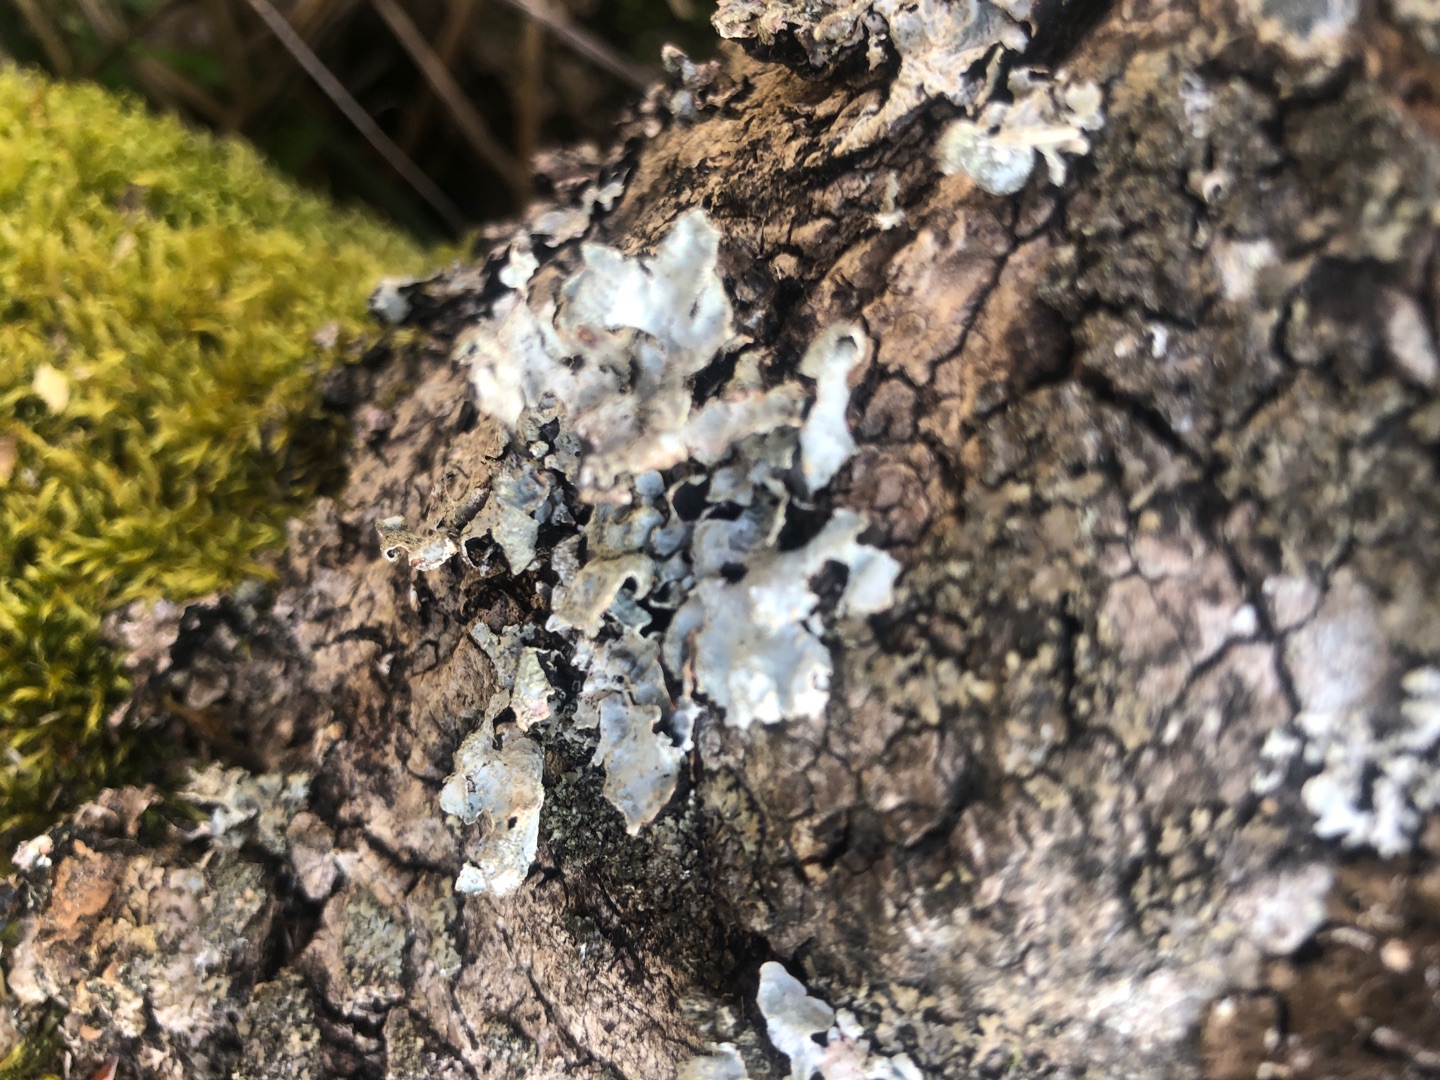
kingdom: Fungi
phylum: Ascomycota
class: Lecanoromycetes
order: Lecanorales
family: Parmeliaceae
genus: Parmelia
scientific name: Parmelia sulcata
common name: Rynket skållav
